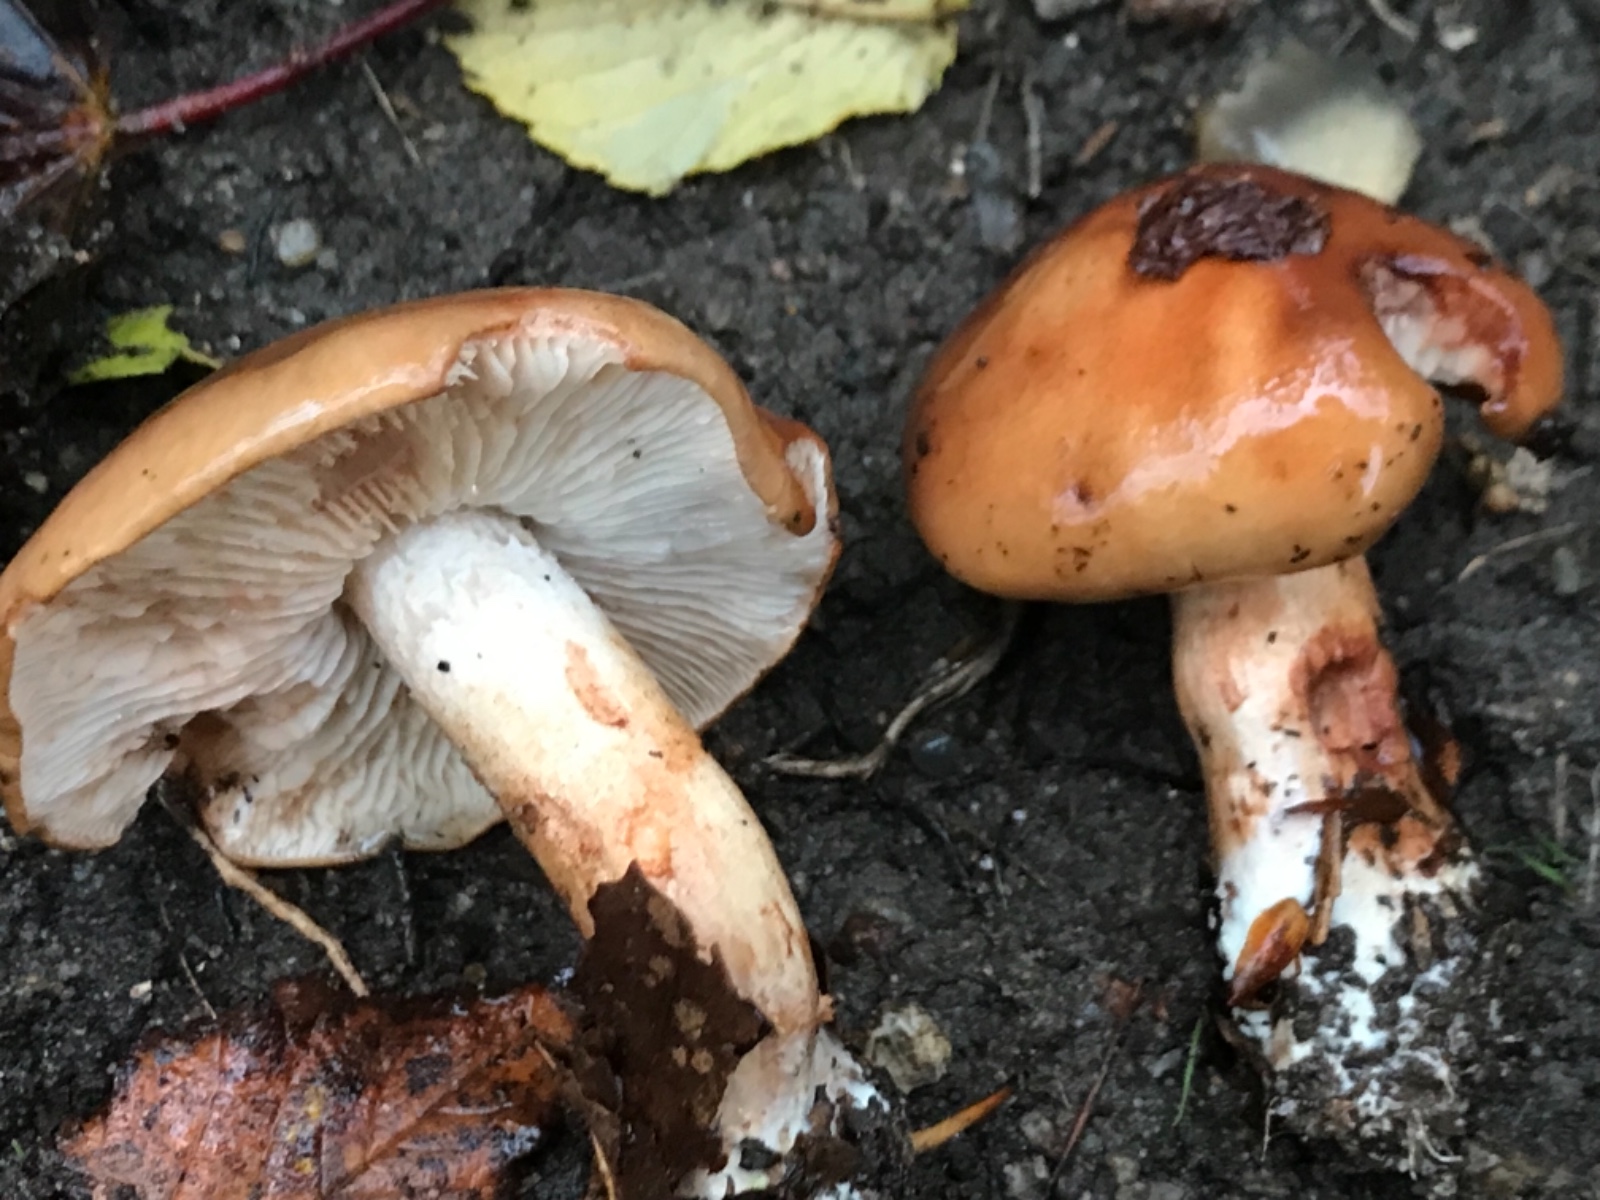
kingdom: Fungi
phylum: Basidiomycota
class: Agaricomycetes
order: Agaricales
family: Tricholomataceae
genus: Tricholoma
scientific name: Tricholoma ustale
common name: sveden ridderhat
